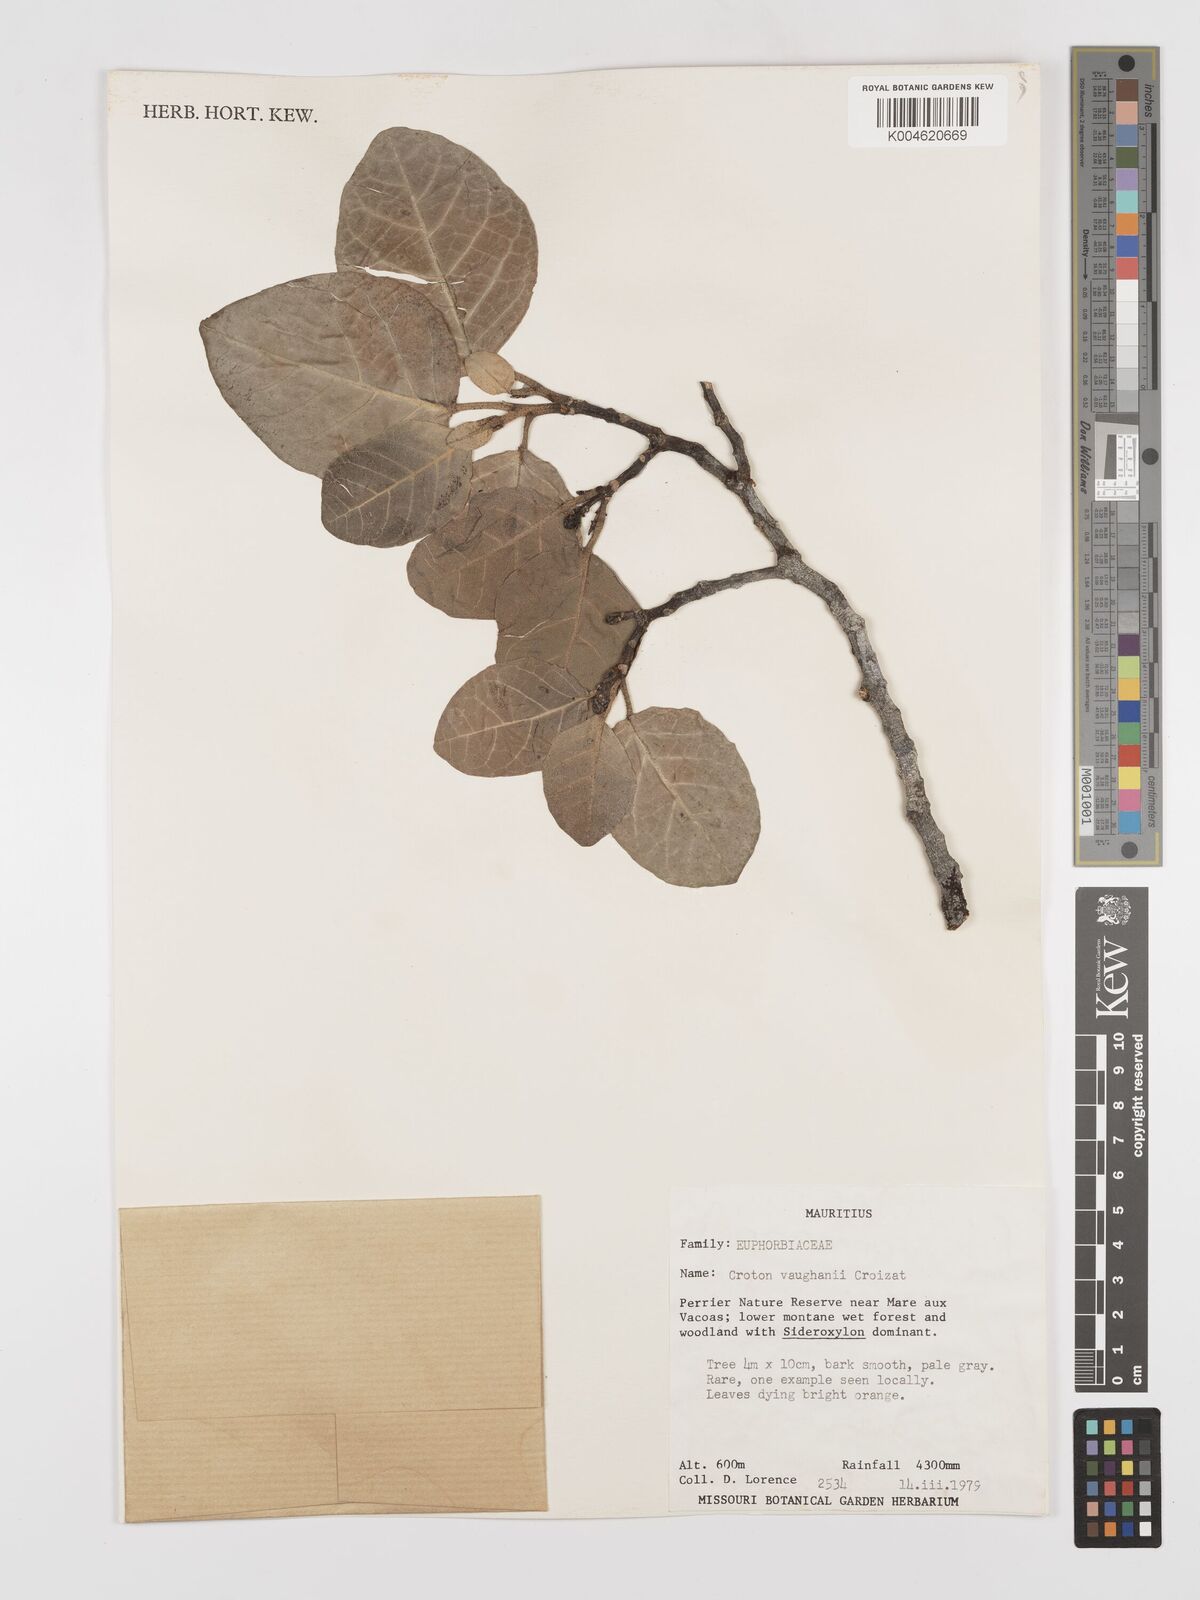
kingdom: Plantae
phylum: Tracheophyta
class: Magnoliopsida
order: Malpighiales
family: Euphorbiaceae
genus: Croton
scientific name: Croton vaughanii
